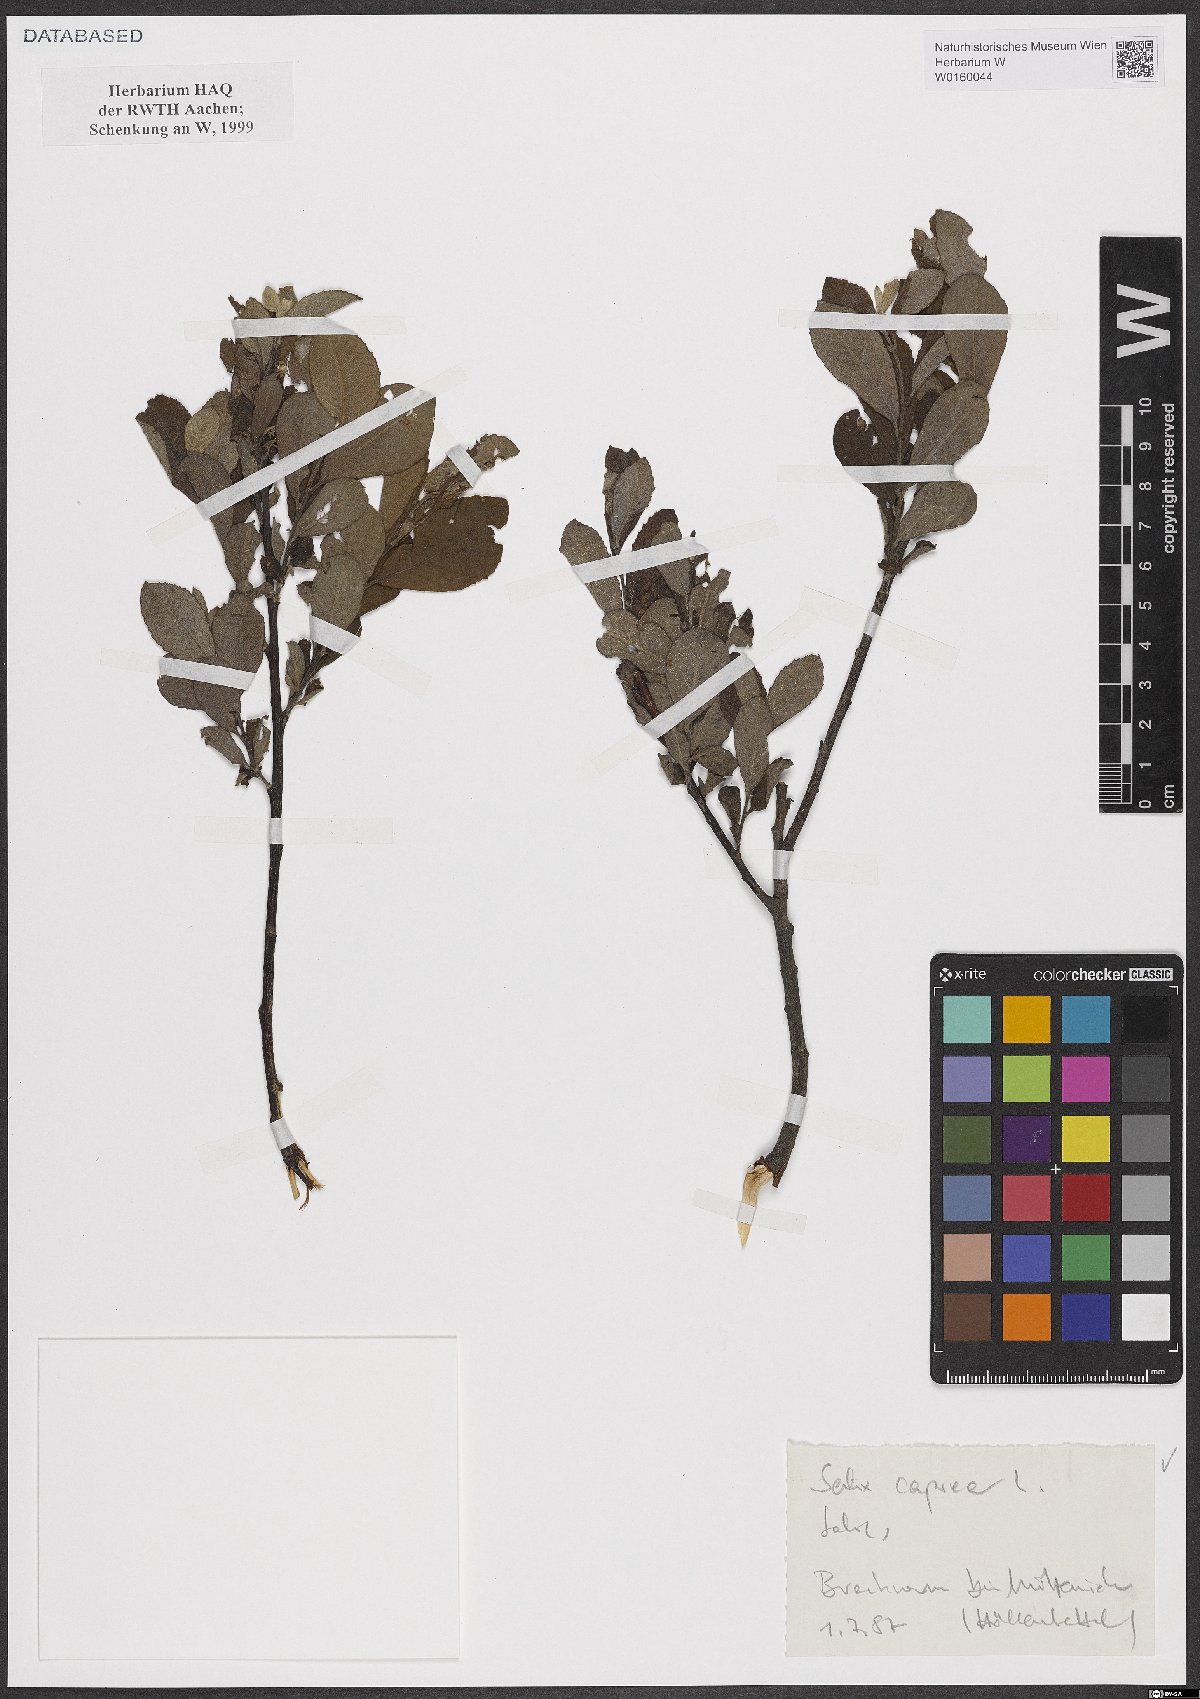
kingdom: Plantae
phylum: Tracheophyta
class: Magnoliopsida
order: Malpighiales
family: Salicaceae
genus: Salix
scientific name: Salix caprea
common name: Goat willow
